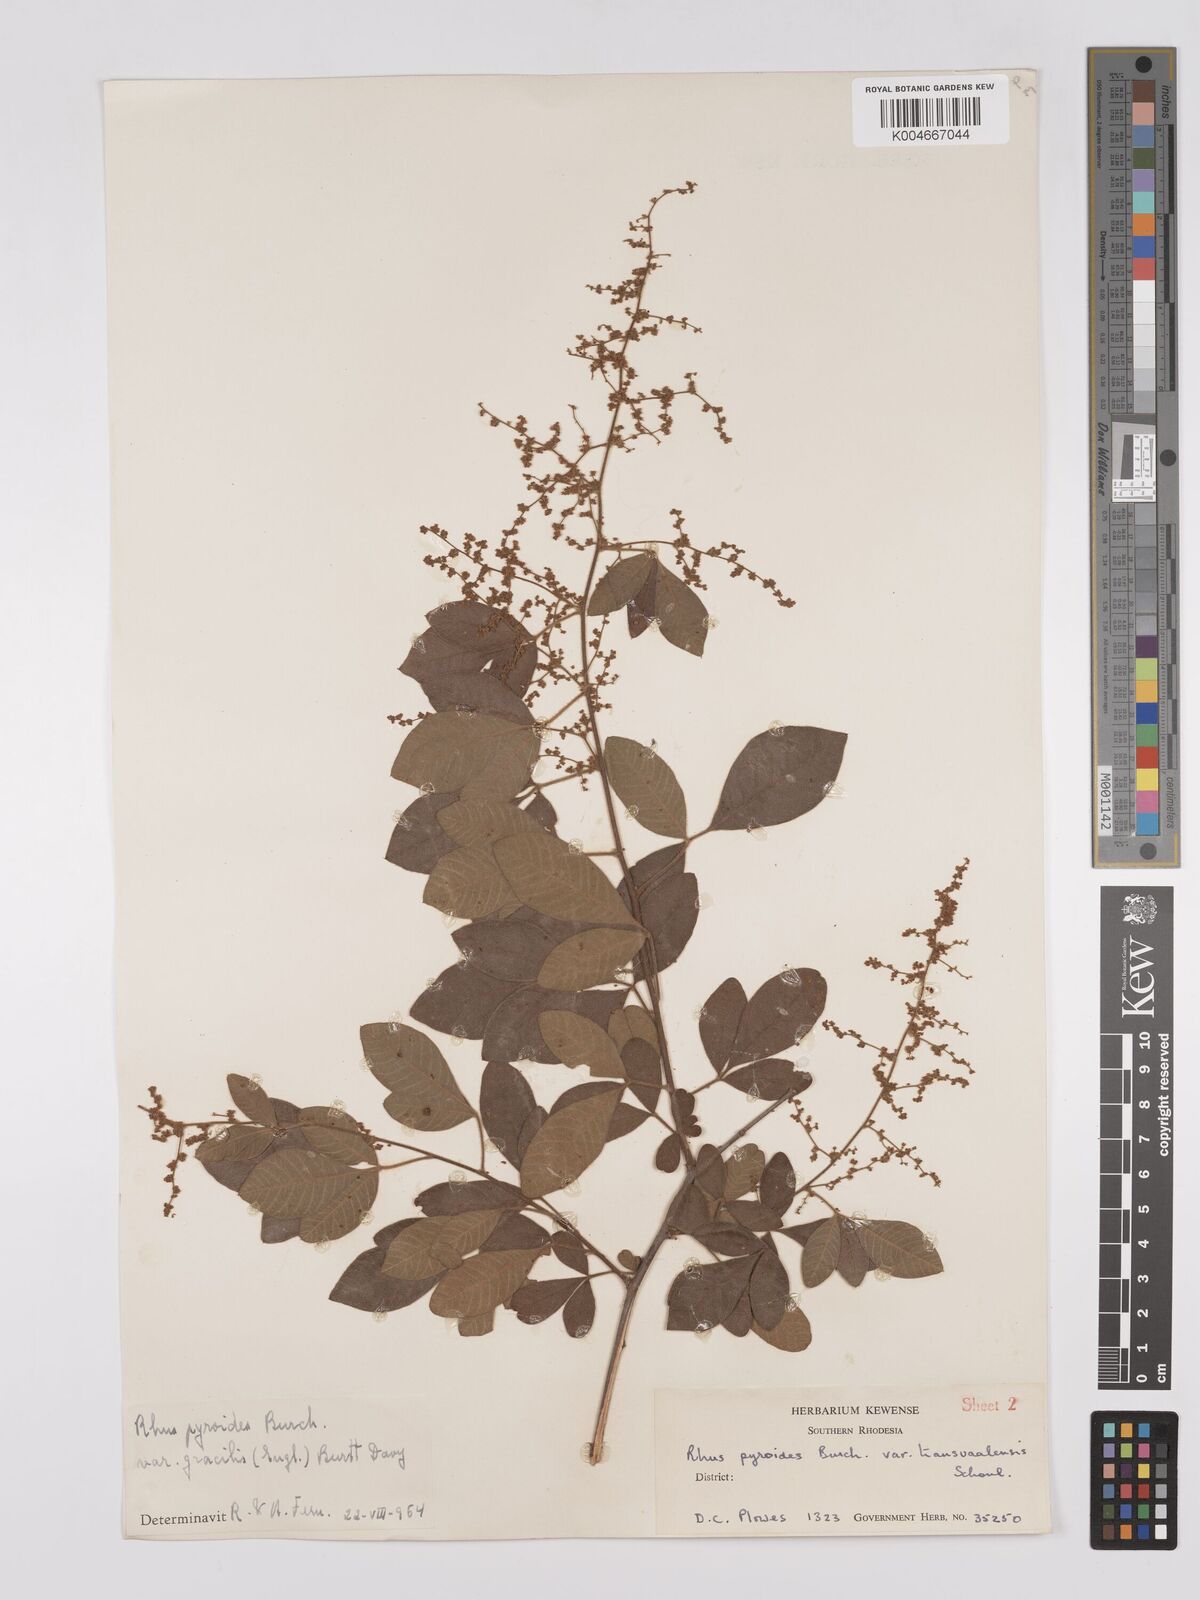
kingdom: Plantae
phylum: Tracheophyta
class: Magnoliopsida
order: Sapindales
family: Anacardiaceae
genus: Rhus
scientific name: Rhus
